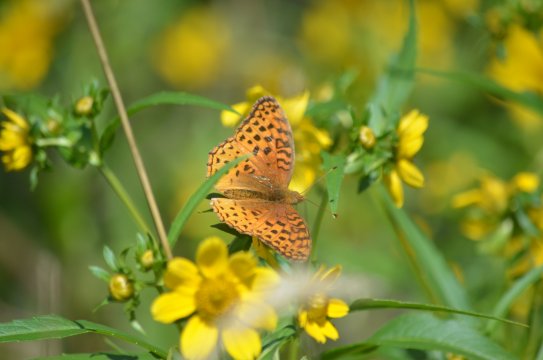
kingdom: Animalia
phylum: Arthropoda
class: Insecta
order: Lepidoptera
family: Nymphalidae
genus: Speyeria
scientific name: Speyeria aphrodite
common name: Aphrodite Fritillary
